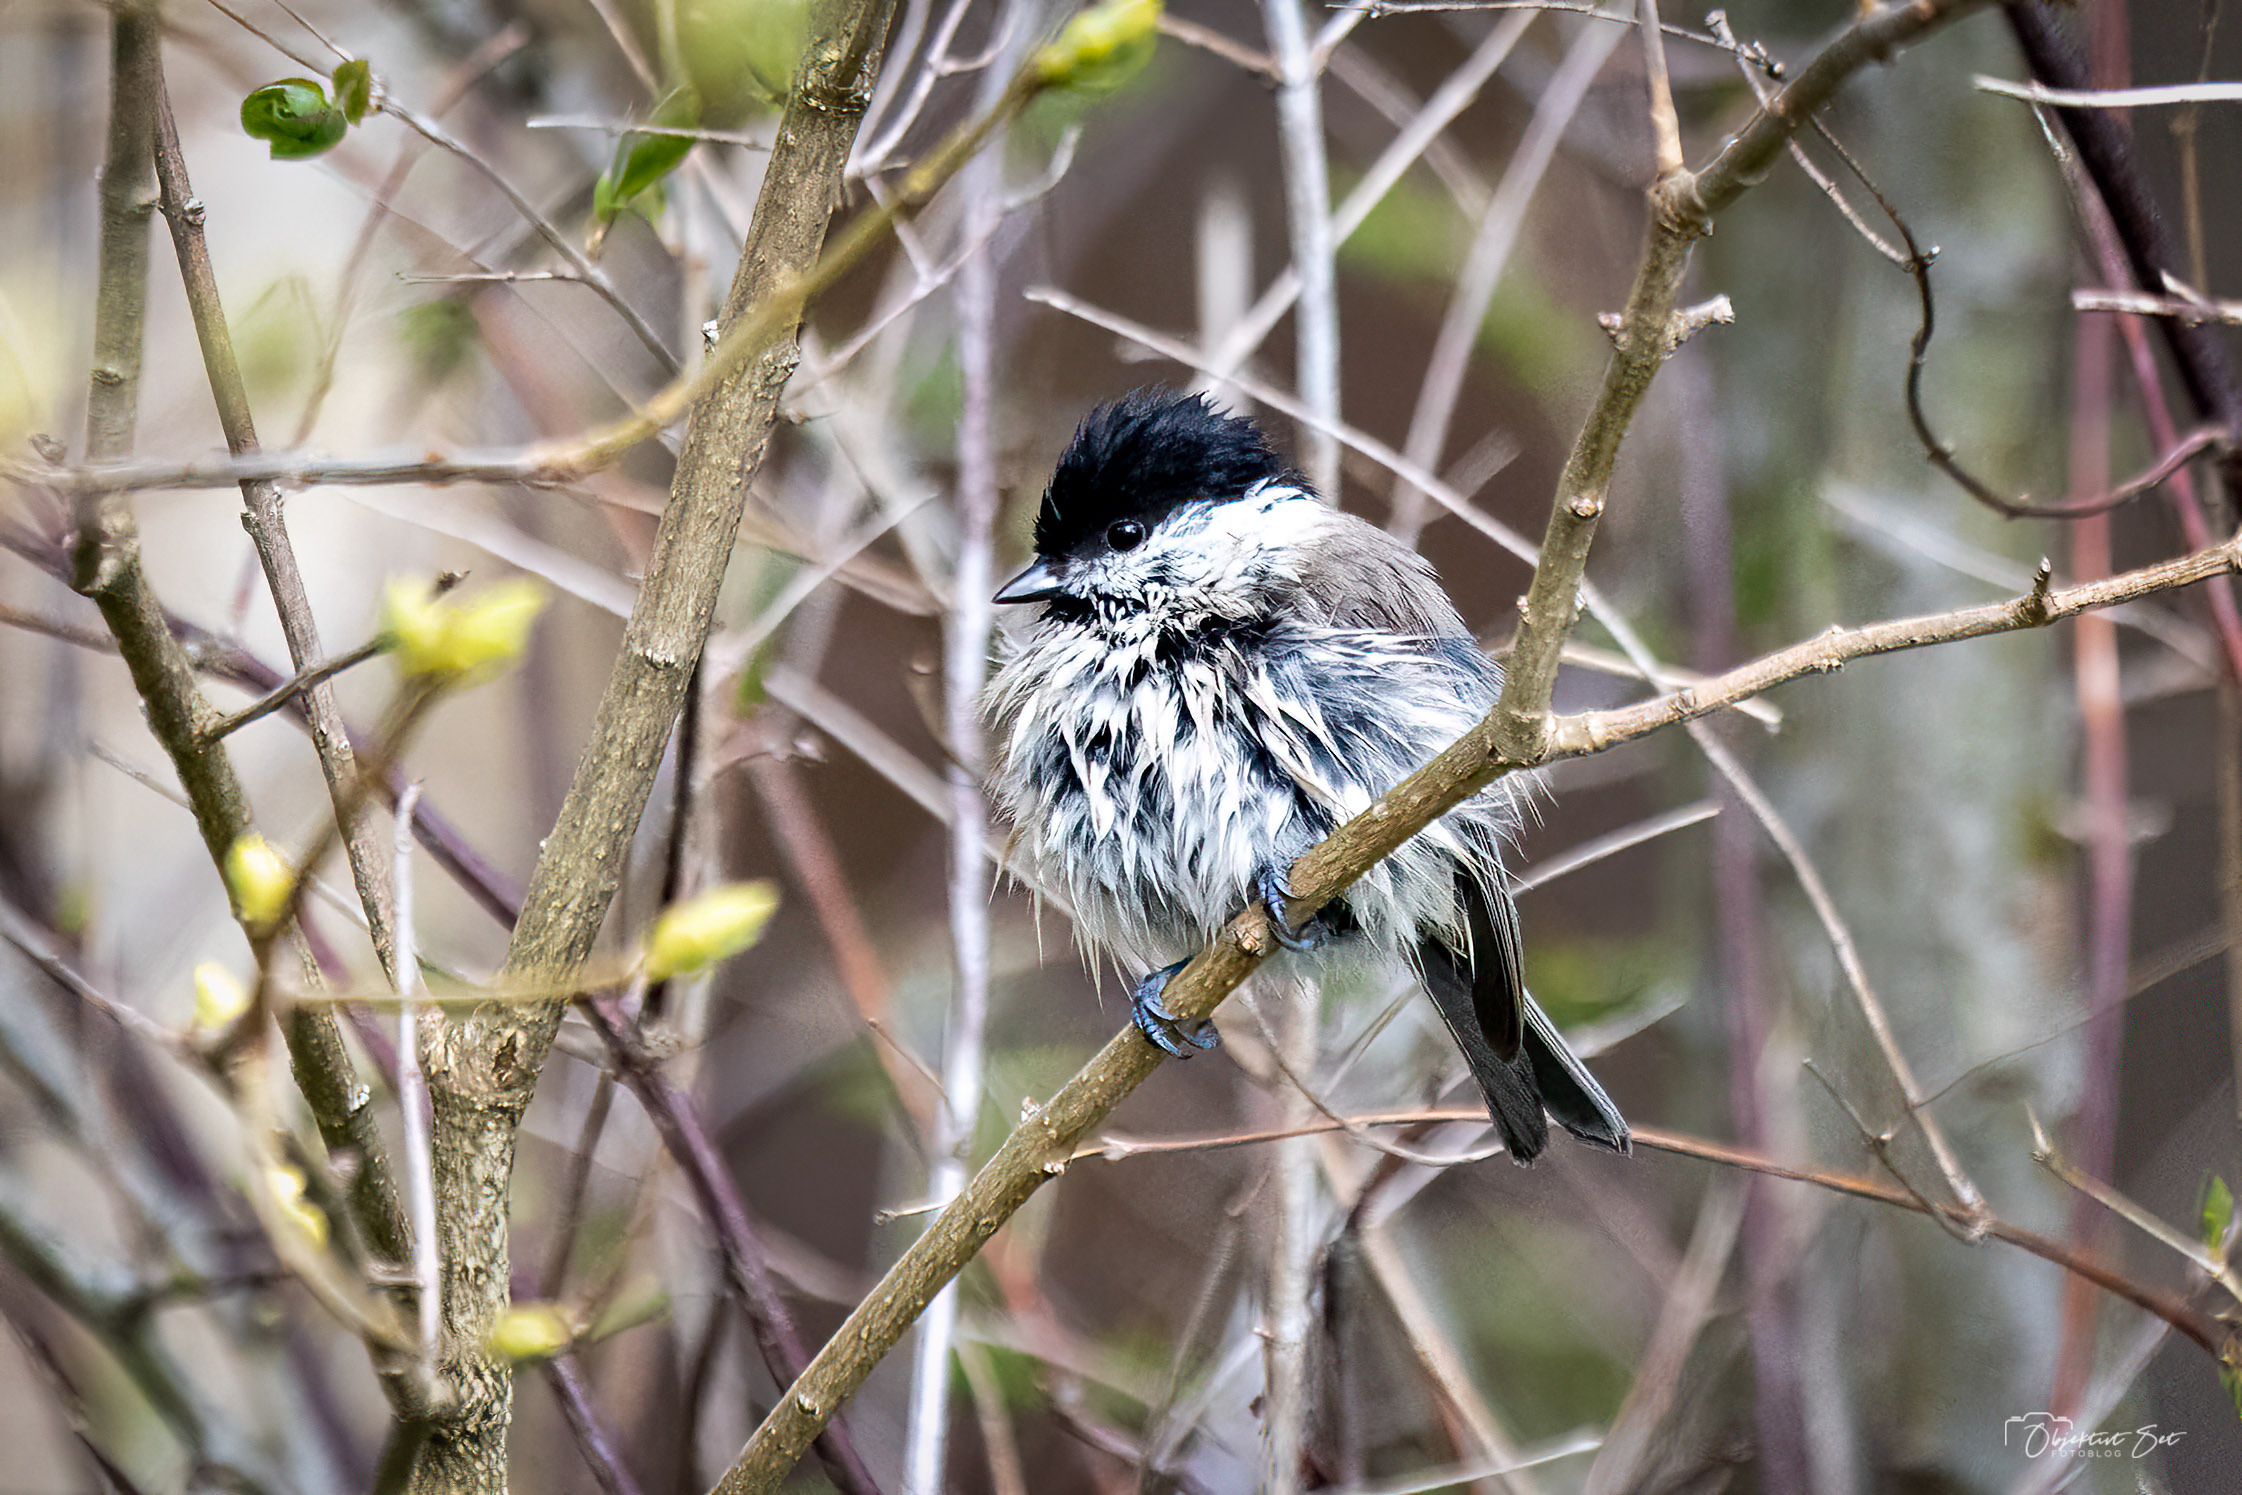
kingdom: Animalia
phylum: Chordata
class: Aves
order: Passeriformes
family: Paridae
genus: Poecile
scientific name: Poecile palustris
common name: Sumpmejse
